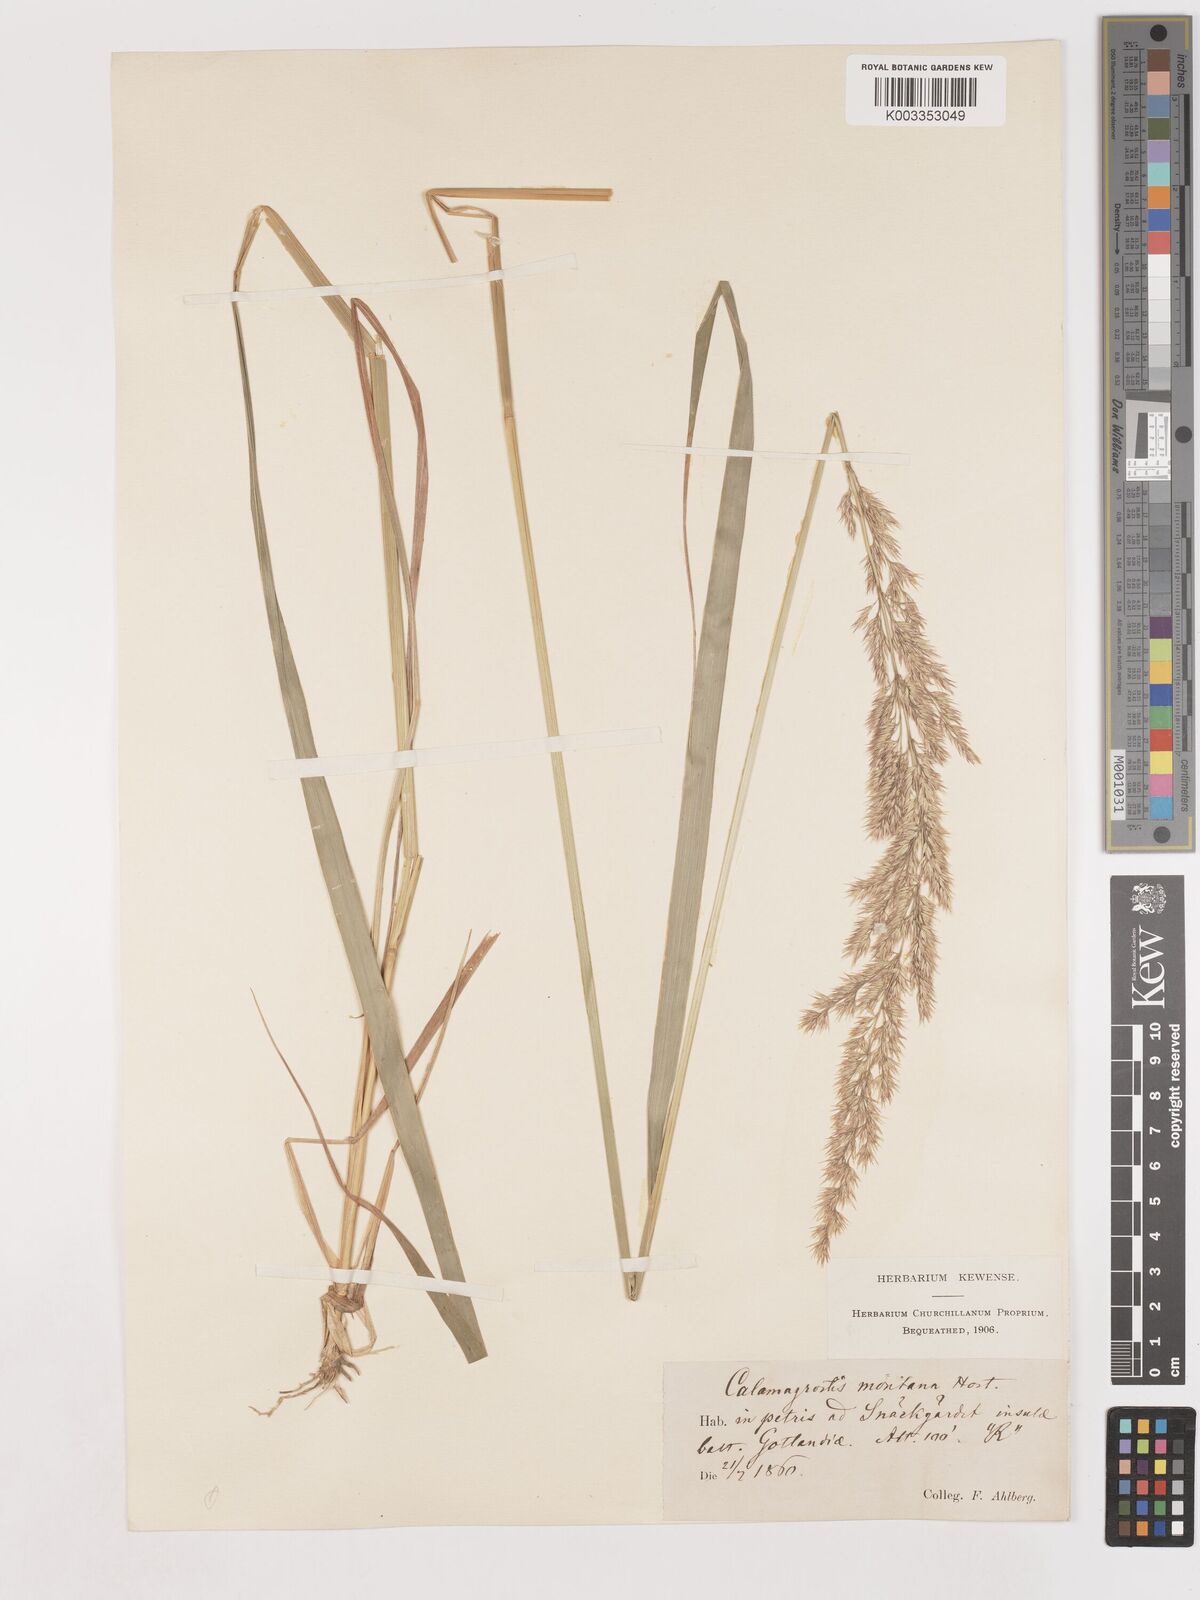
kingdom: Plantae
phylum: Tracheophyta
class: Liliopsida
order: Poales
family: Poaceae
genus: Calamagrostis
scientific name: Calamagrostis epigejos
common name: Wood small-reed
